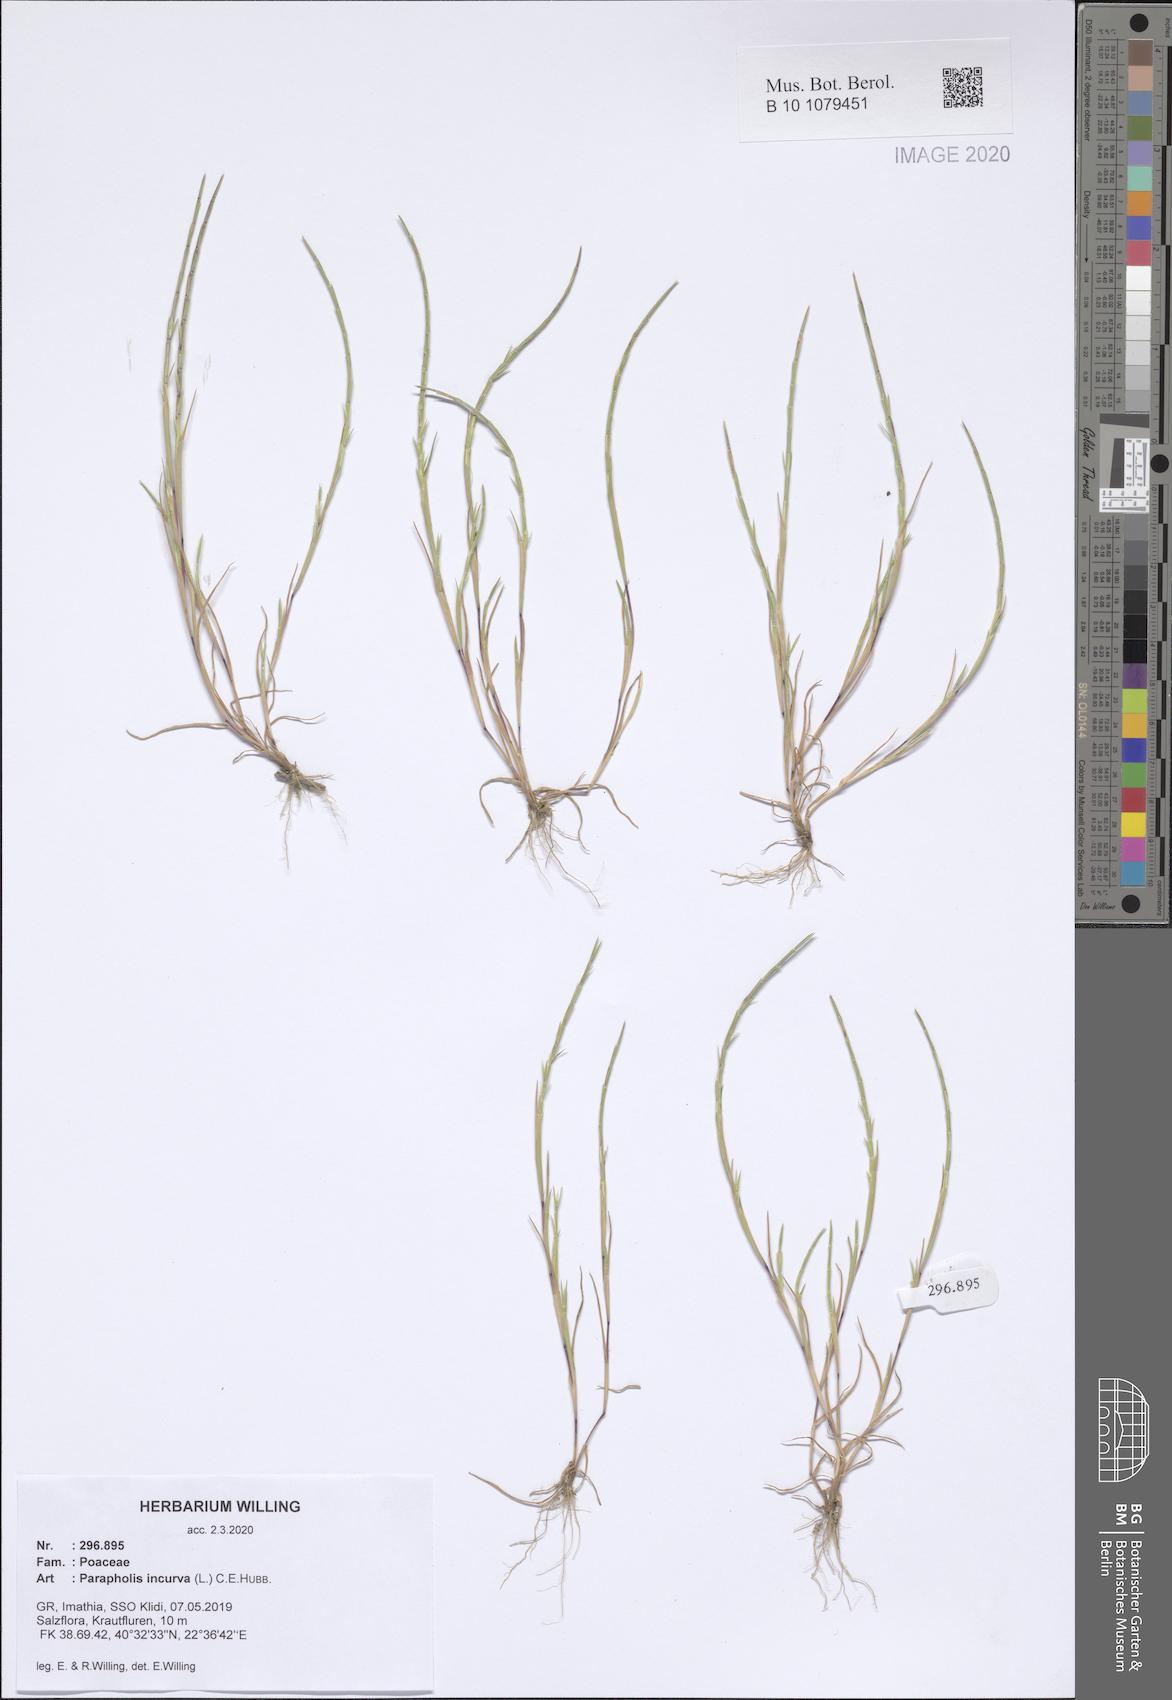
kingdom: Plantae
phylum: Tracheophyta
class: Liliopsida
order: Poales
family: Poaceae
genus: Parapholis
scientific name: Parapholis incurva
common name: Curved sicklegrass
